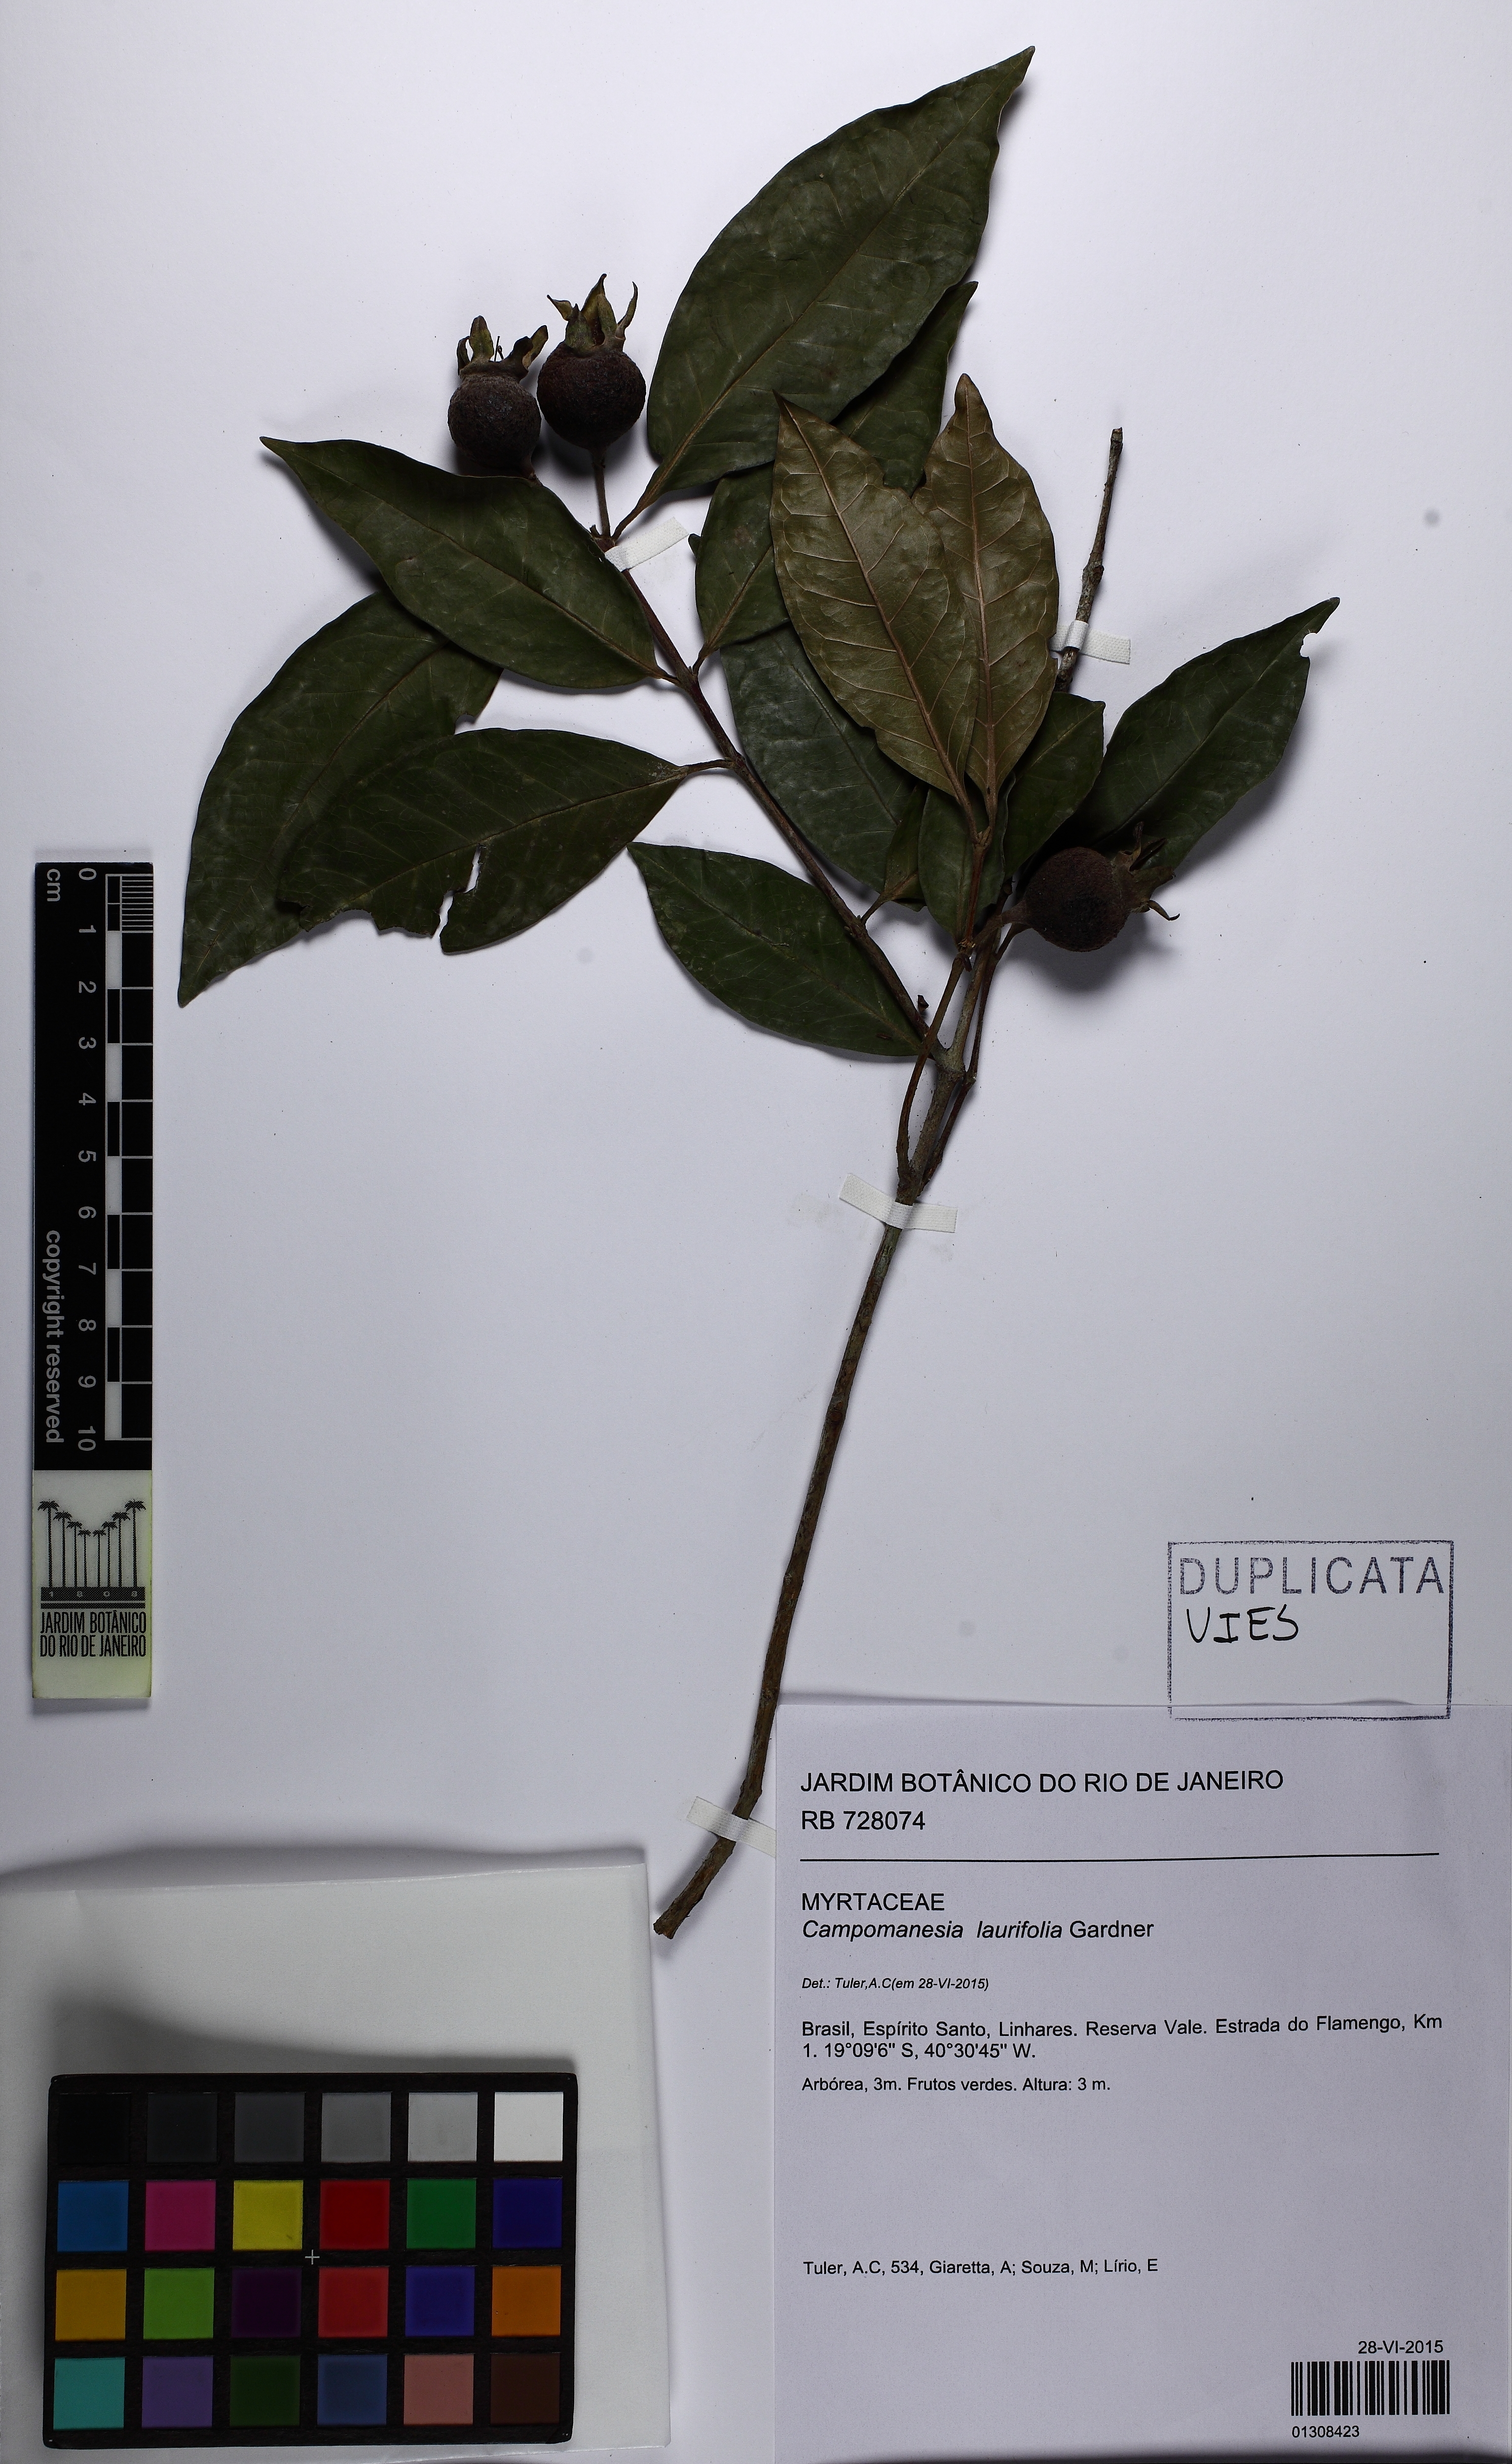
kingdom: Plantae
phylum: Tracheophyta
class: Magnoliopsida
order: Myrtales
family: Myrtaceae
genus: Campomanesia
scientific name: Campomanesia laurifolia
